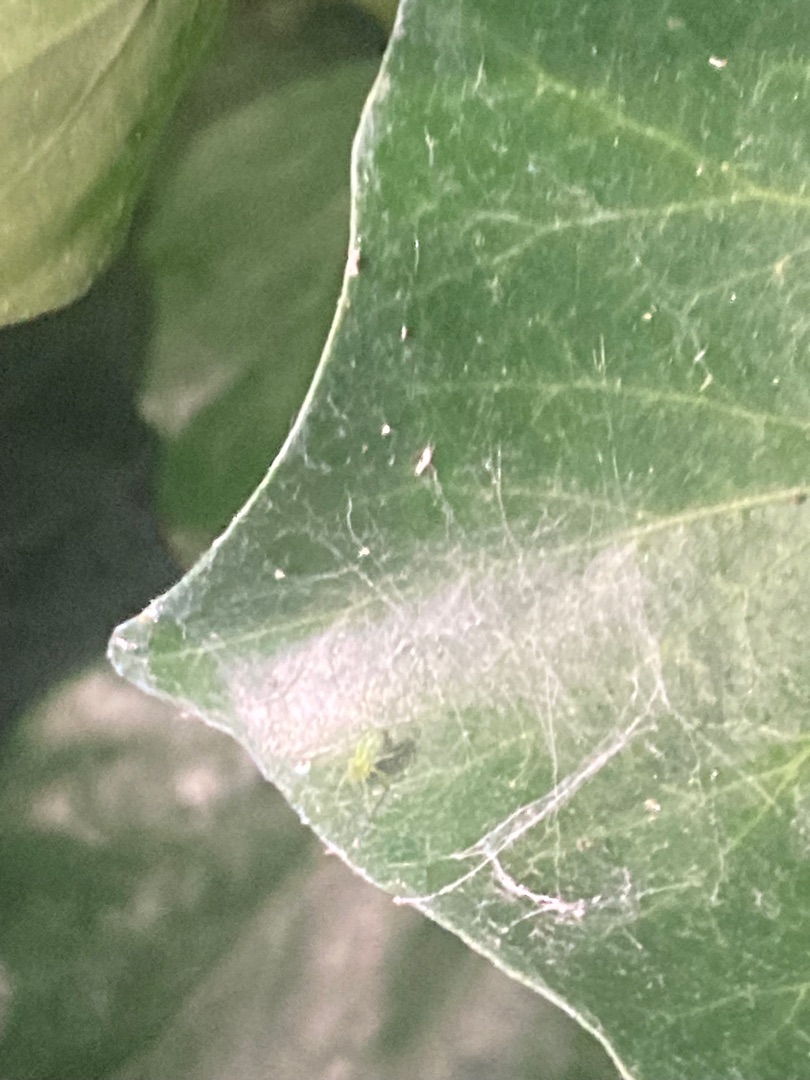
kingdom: Animalia
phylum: Arthropoda
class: Arachnida
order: Araneae
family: Dictynidae
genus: Nigma
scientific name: Nigma walckenaeri
